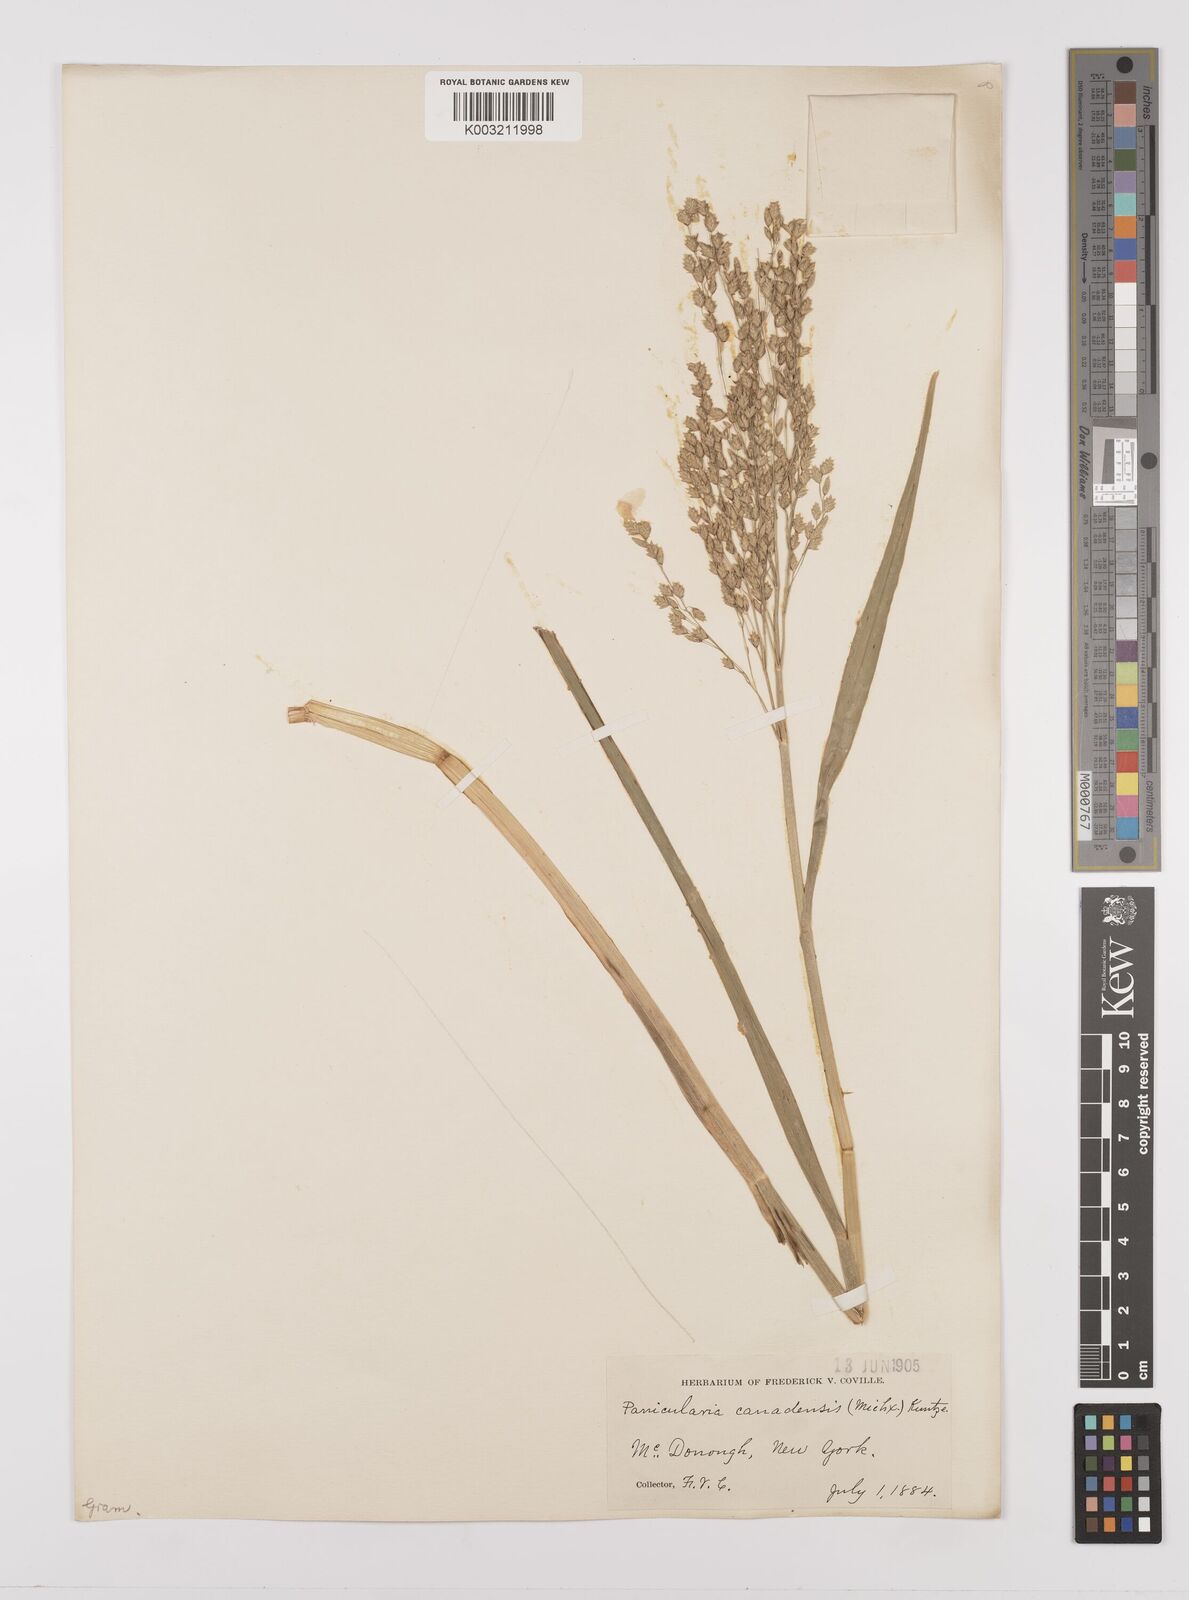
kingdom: Plantae
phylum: Tracheophyta
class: Liliopsida
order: Poales
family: Poaceae
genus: Glyceria
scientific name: Glyceria canadensis
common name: Canada mannagrass
